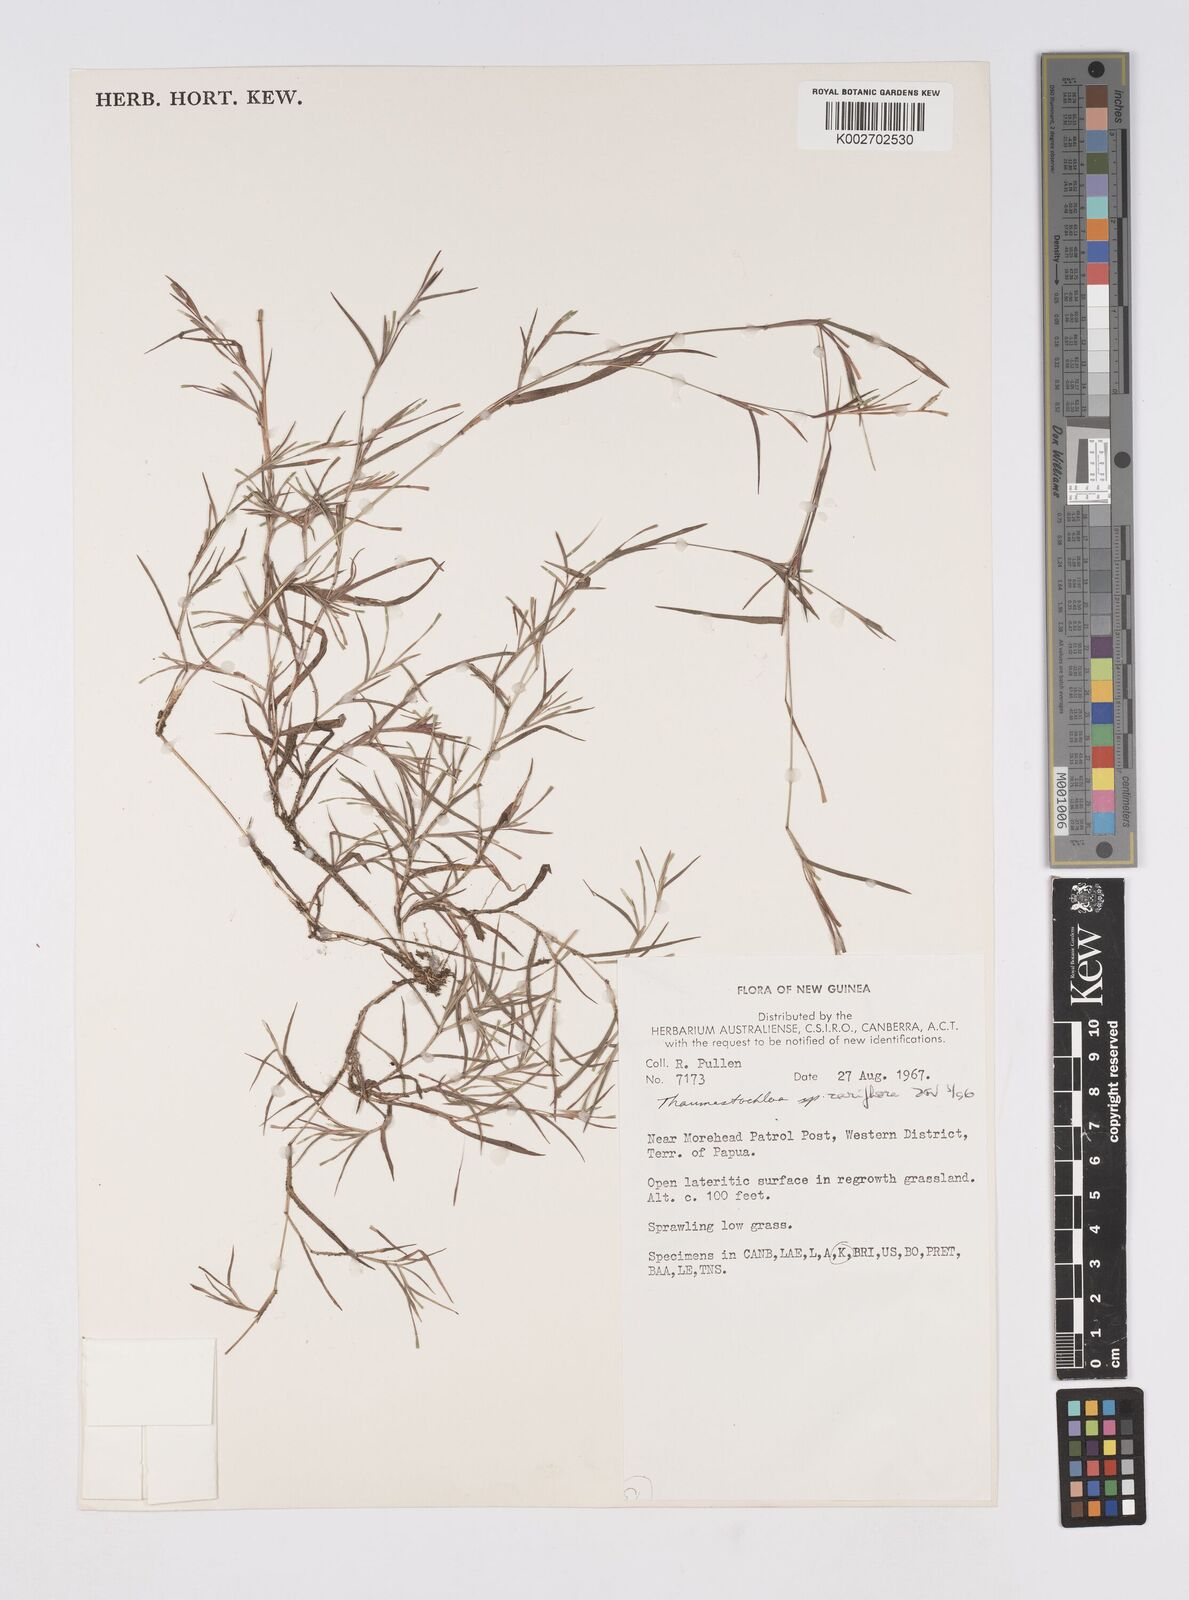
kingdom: Plantae
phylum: Tracheophyta
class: Liliopsida
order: Poales
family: Poaceae
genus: Thaumastochloa
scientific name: Thaumastochloa rariflora
